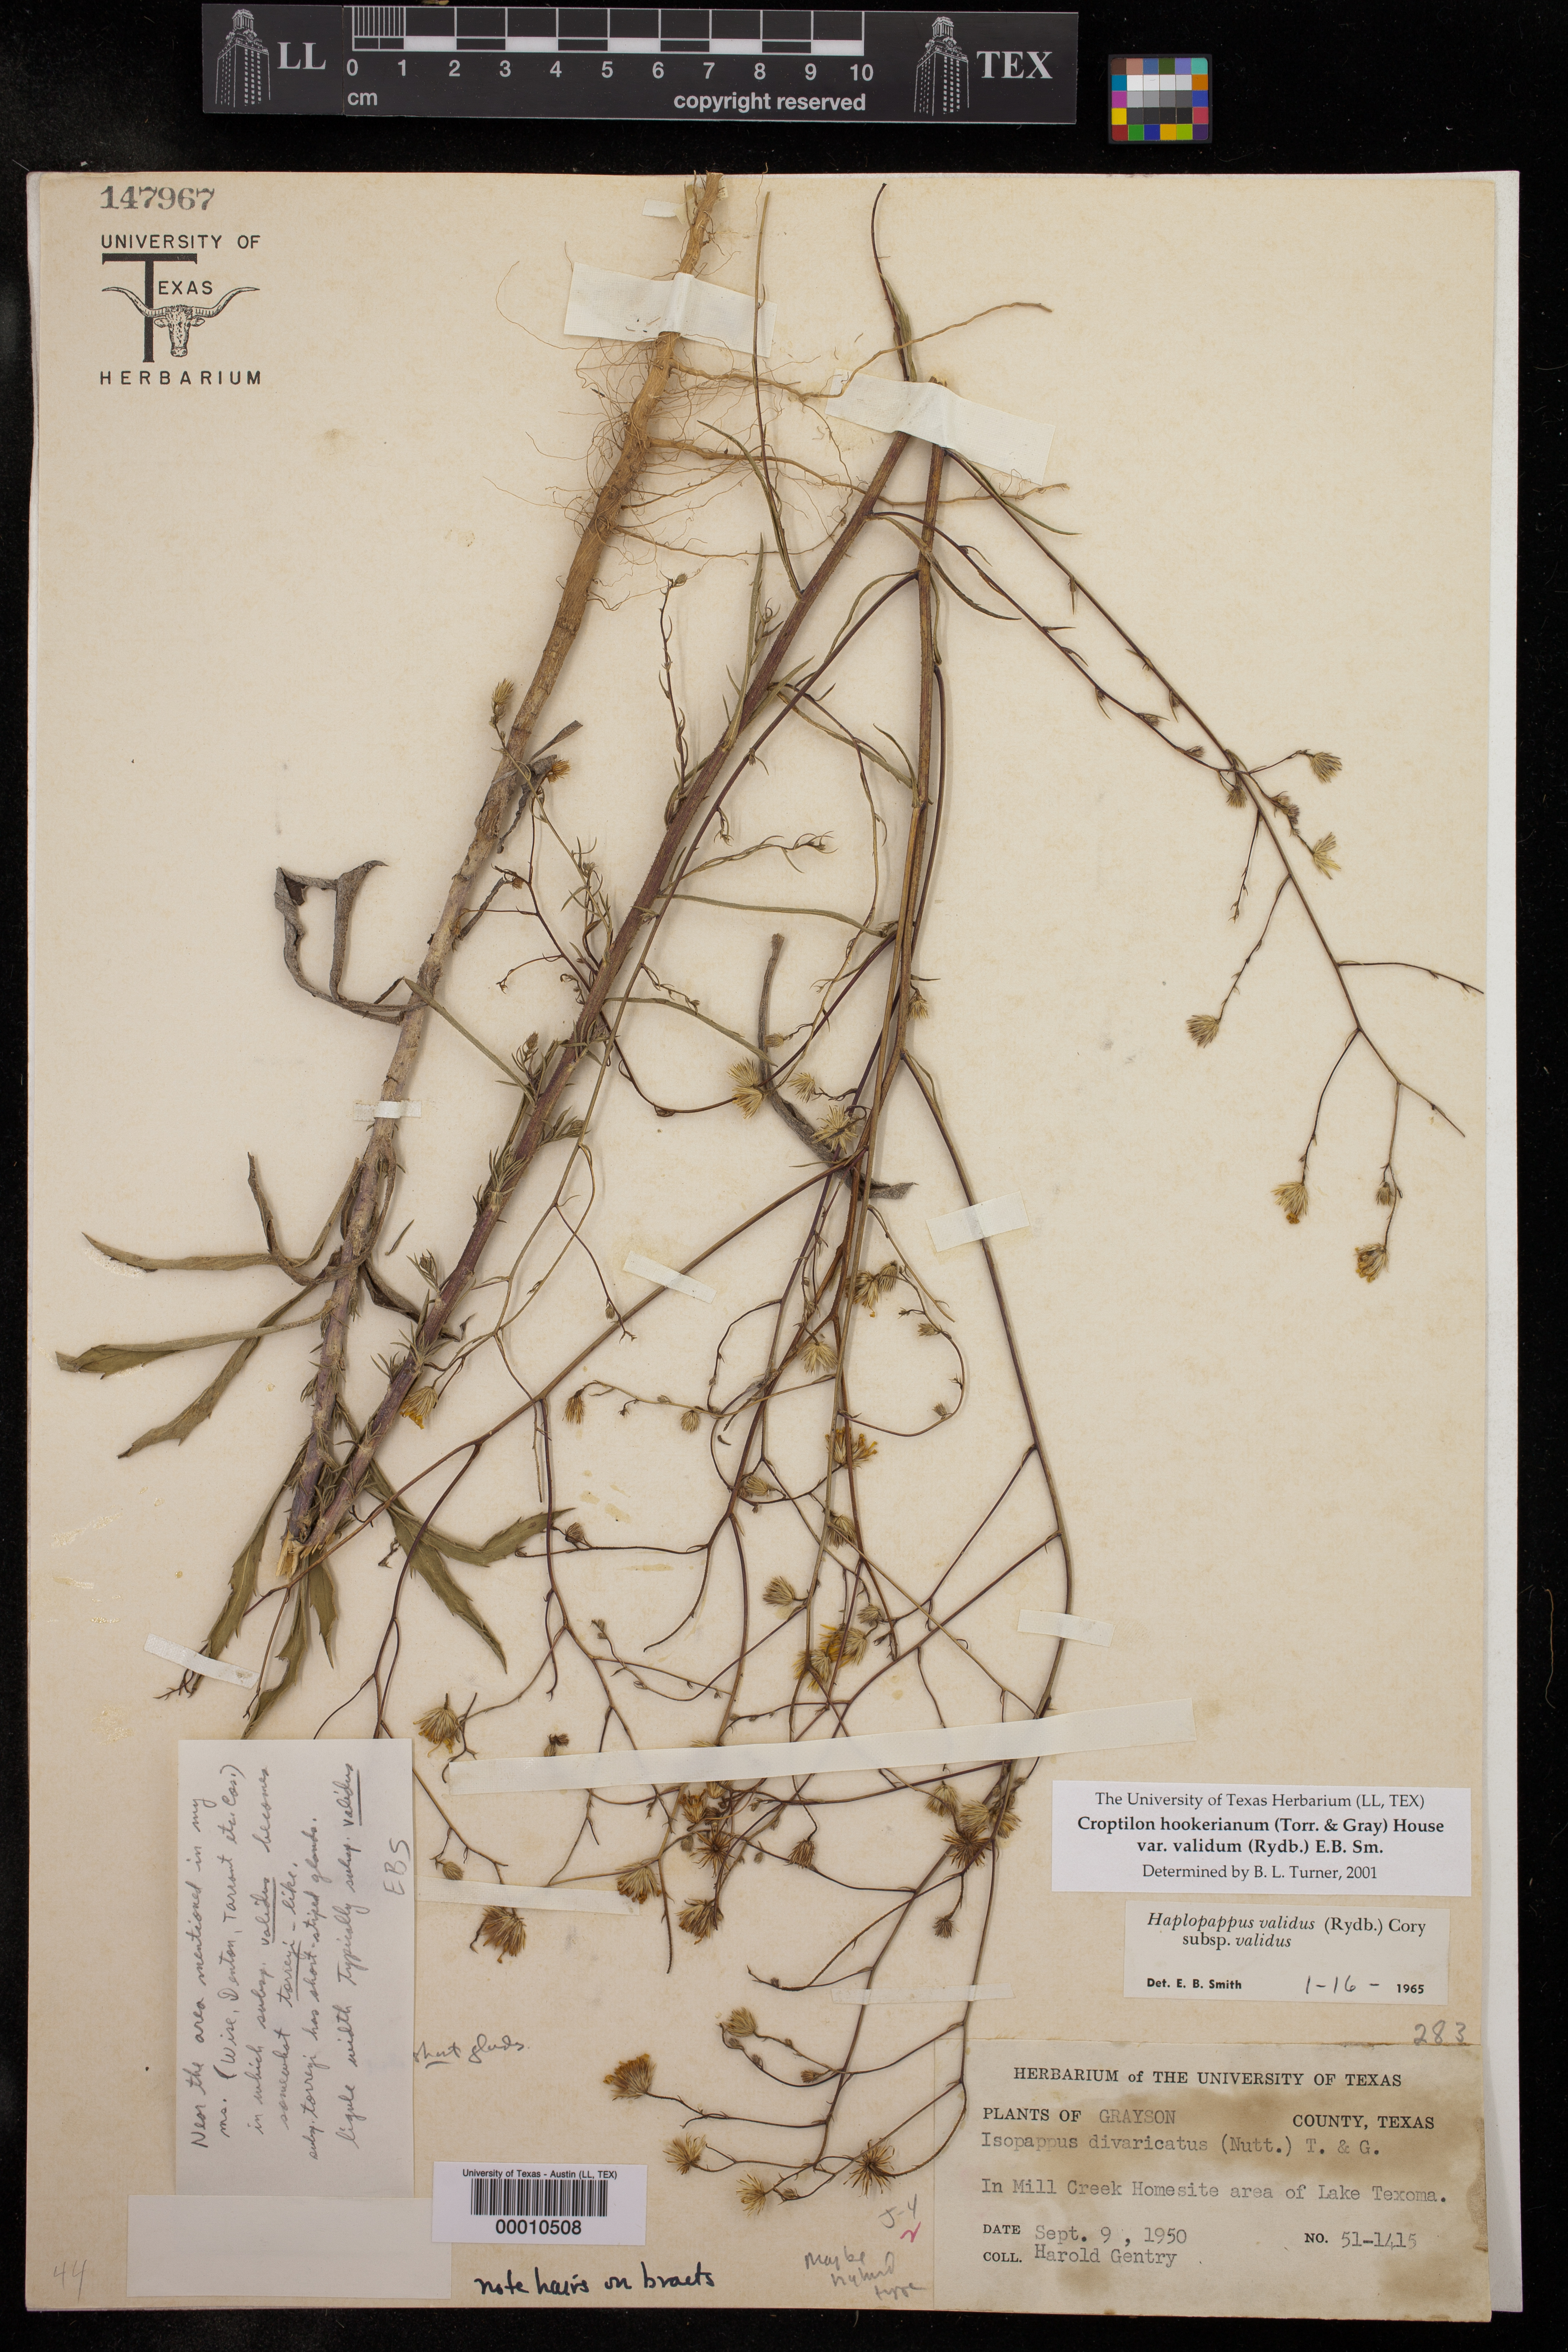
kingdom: Plantae
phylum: Tracheophyta
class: Magnoliopsida
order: Asterales
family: Asteraceae
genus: Croptilon
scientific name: Croptilon hookerianum
